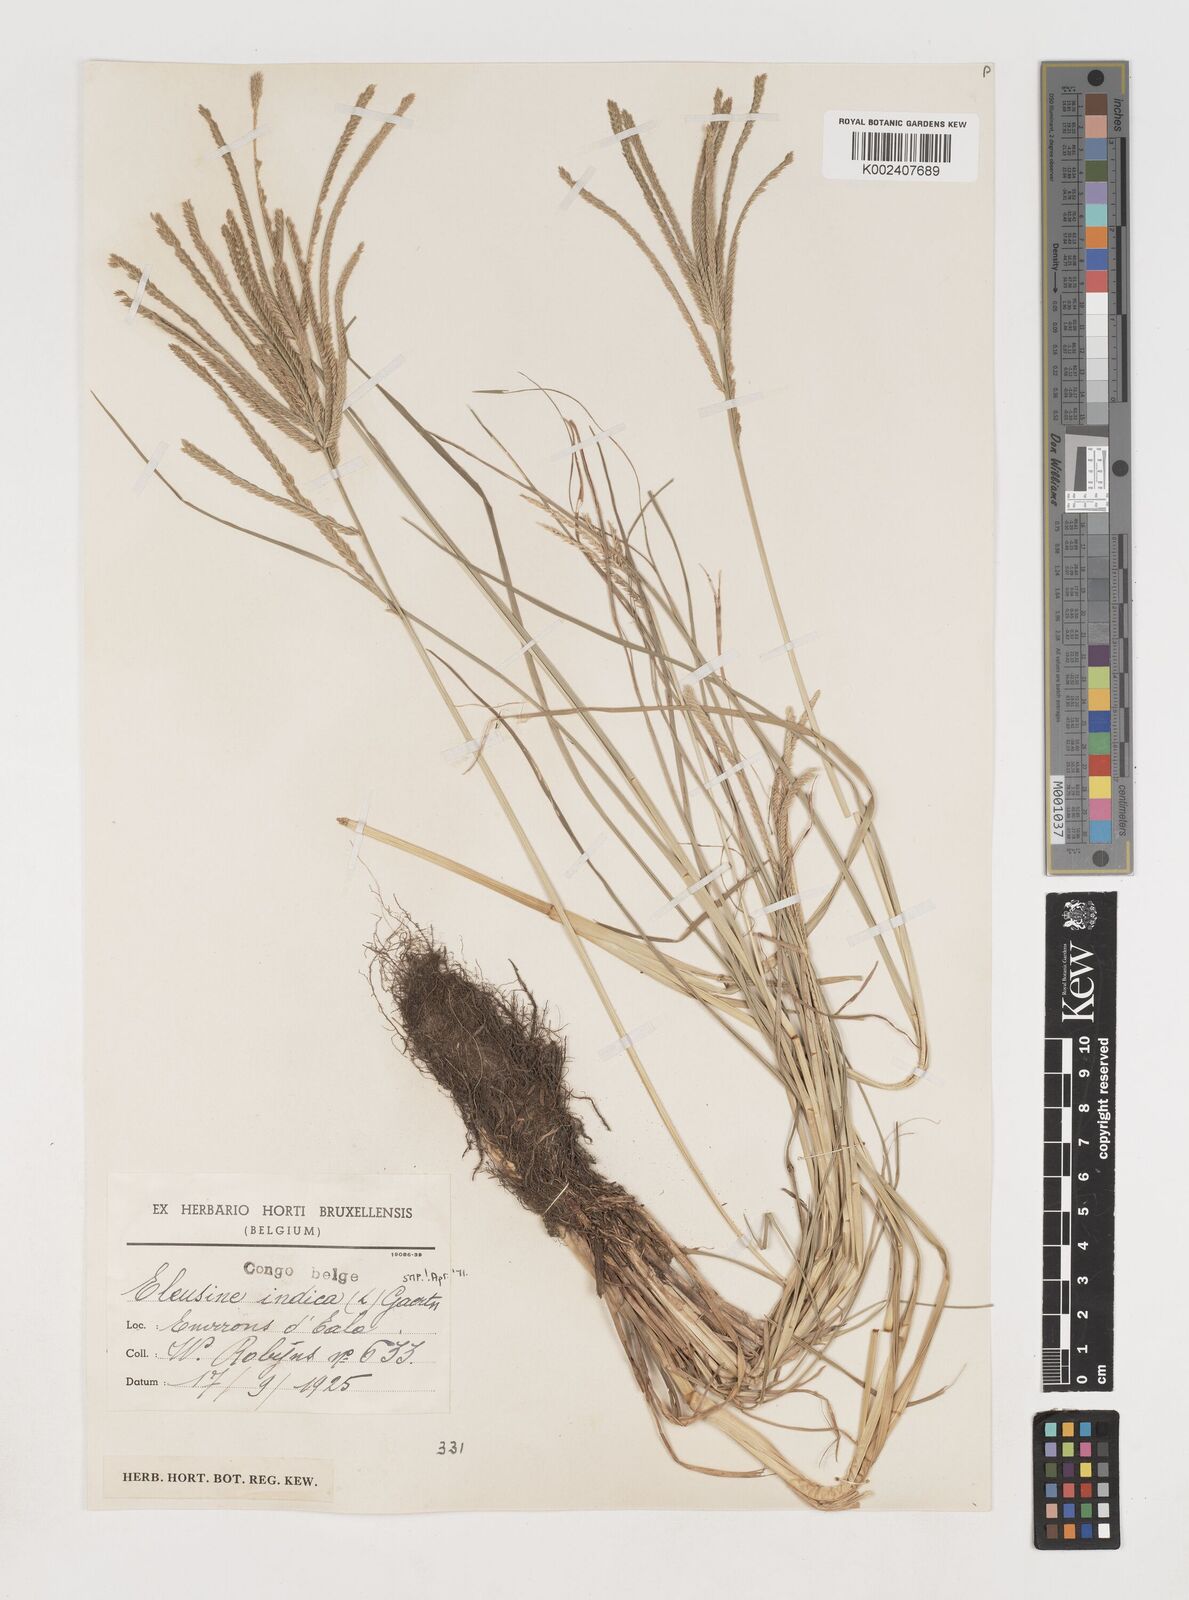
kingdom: Plantae
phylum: Tracheophyta
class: Liliopsida
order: Poales
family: Poaceae
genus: Eleusine
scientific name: Eleusine indica
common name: Yard-grass
